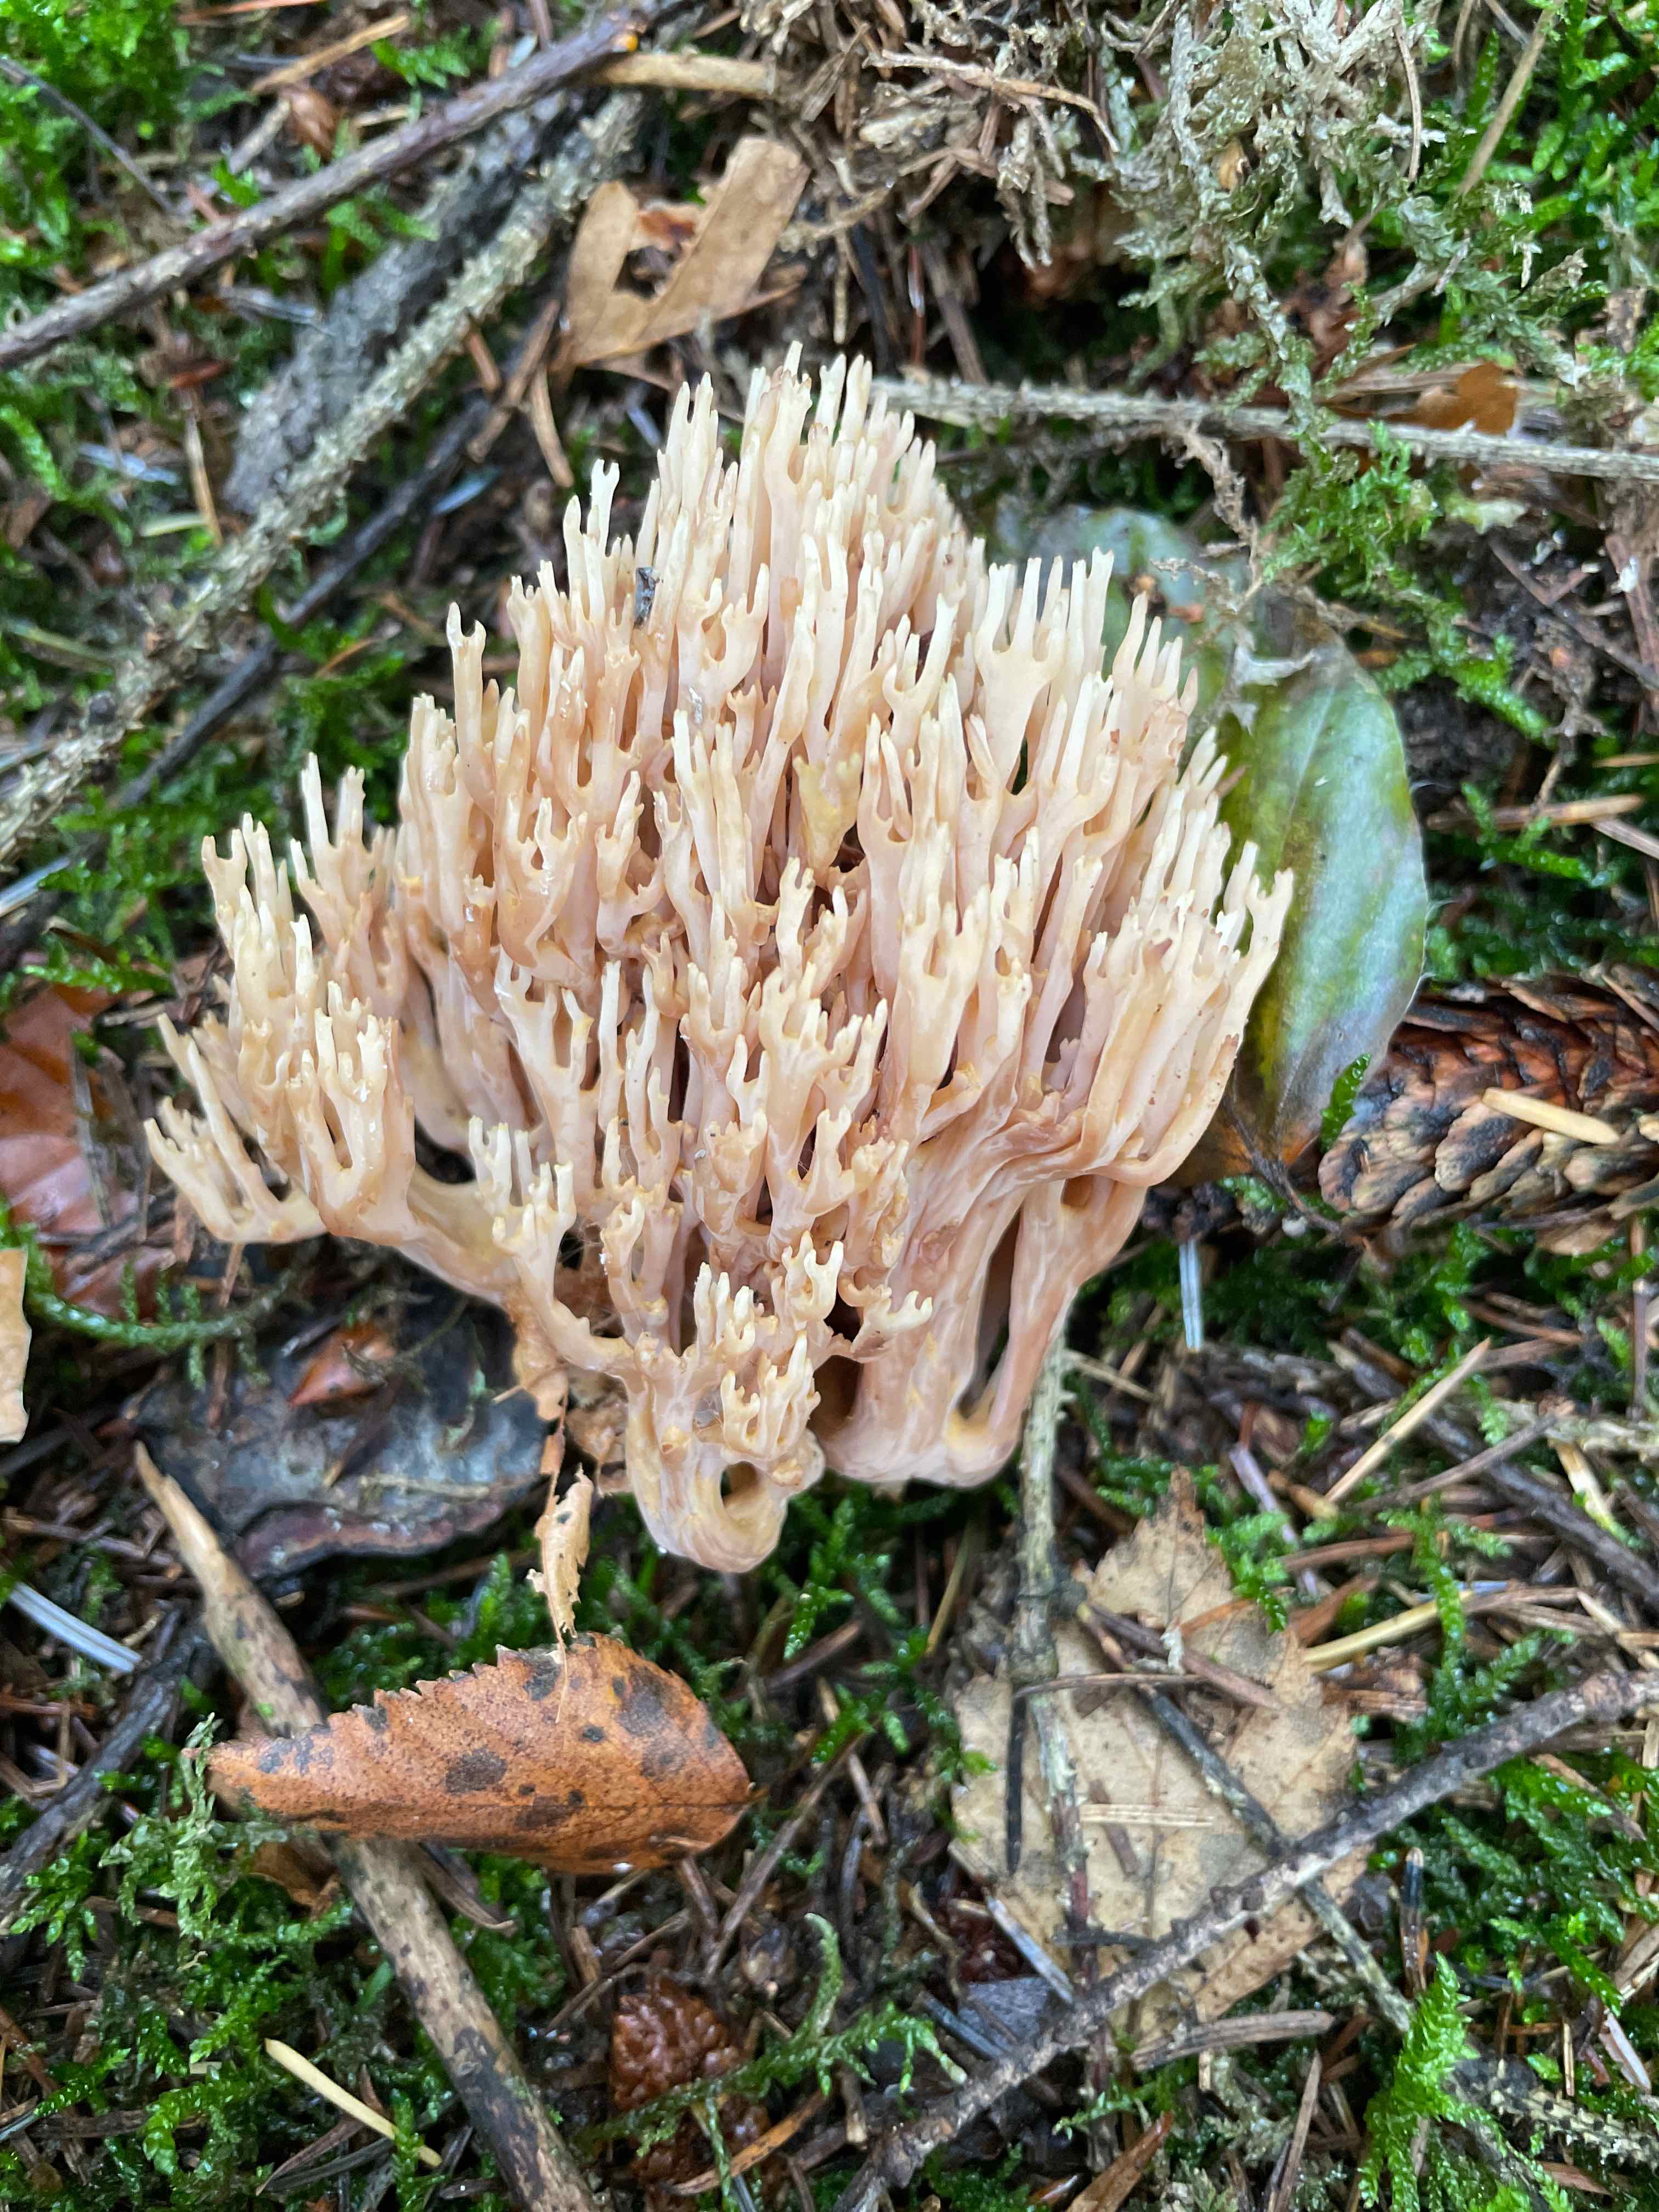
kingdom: Fungi
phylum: Basidiomycota
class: Agaricomycetes
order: Gomphales
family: Gomphaceae
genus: Ramaria
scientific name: Ramaria stricta
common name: rank koralsvamp
